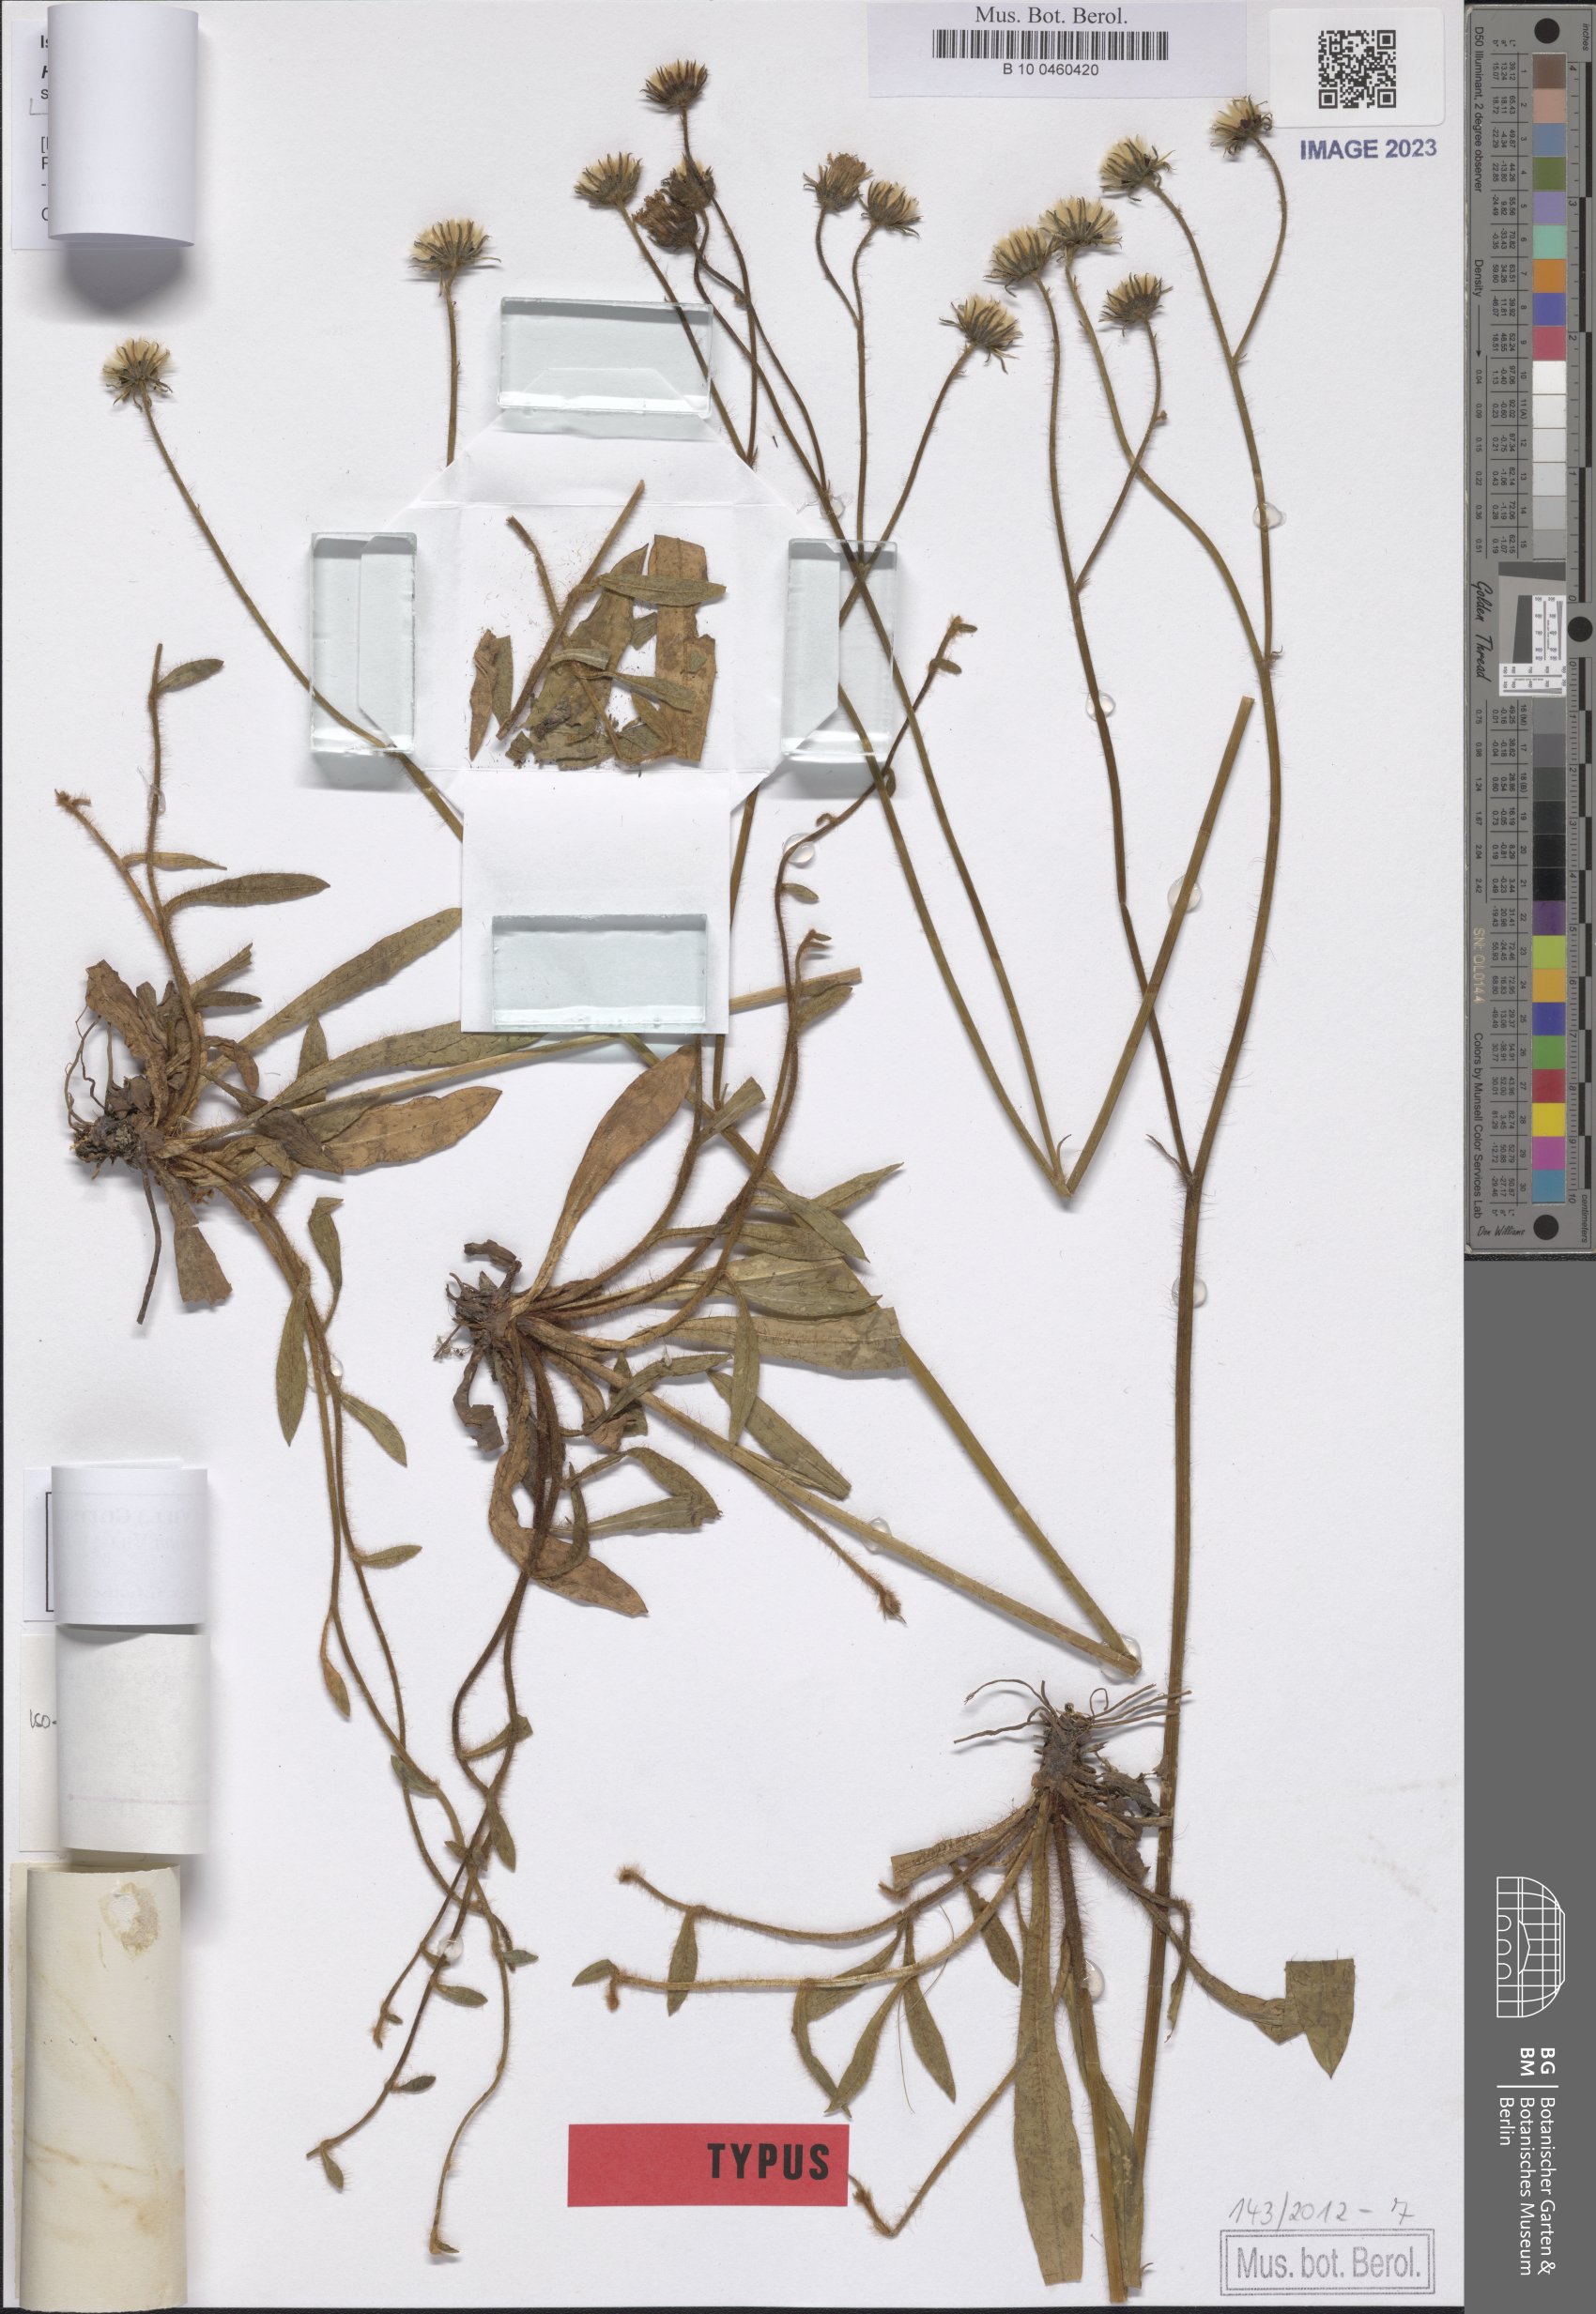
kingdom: Plantae
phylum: Tracheophyta
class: Magnoliopsida
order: Asterales
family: Asteraceae
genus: Pilosella
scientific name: Pilosella acutifolia
